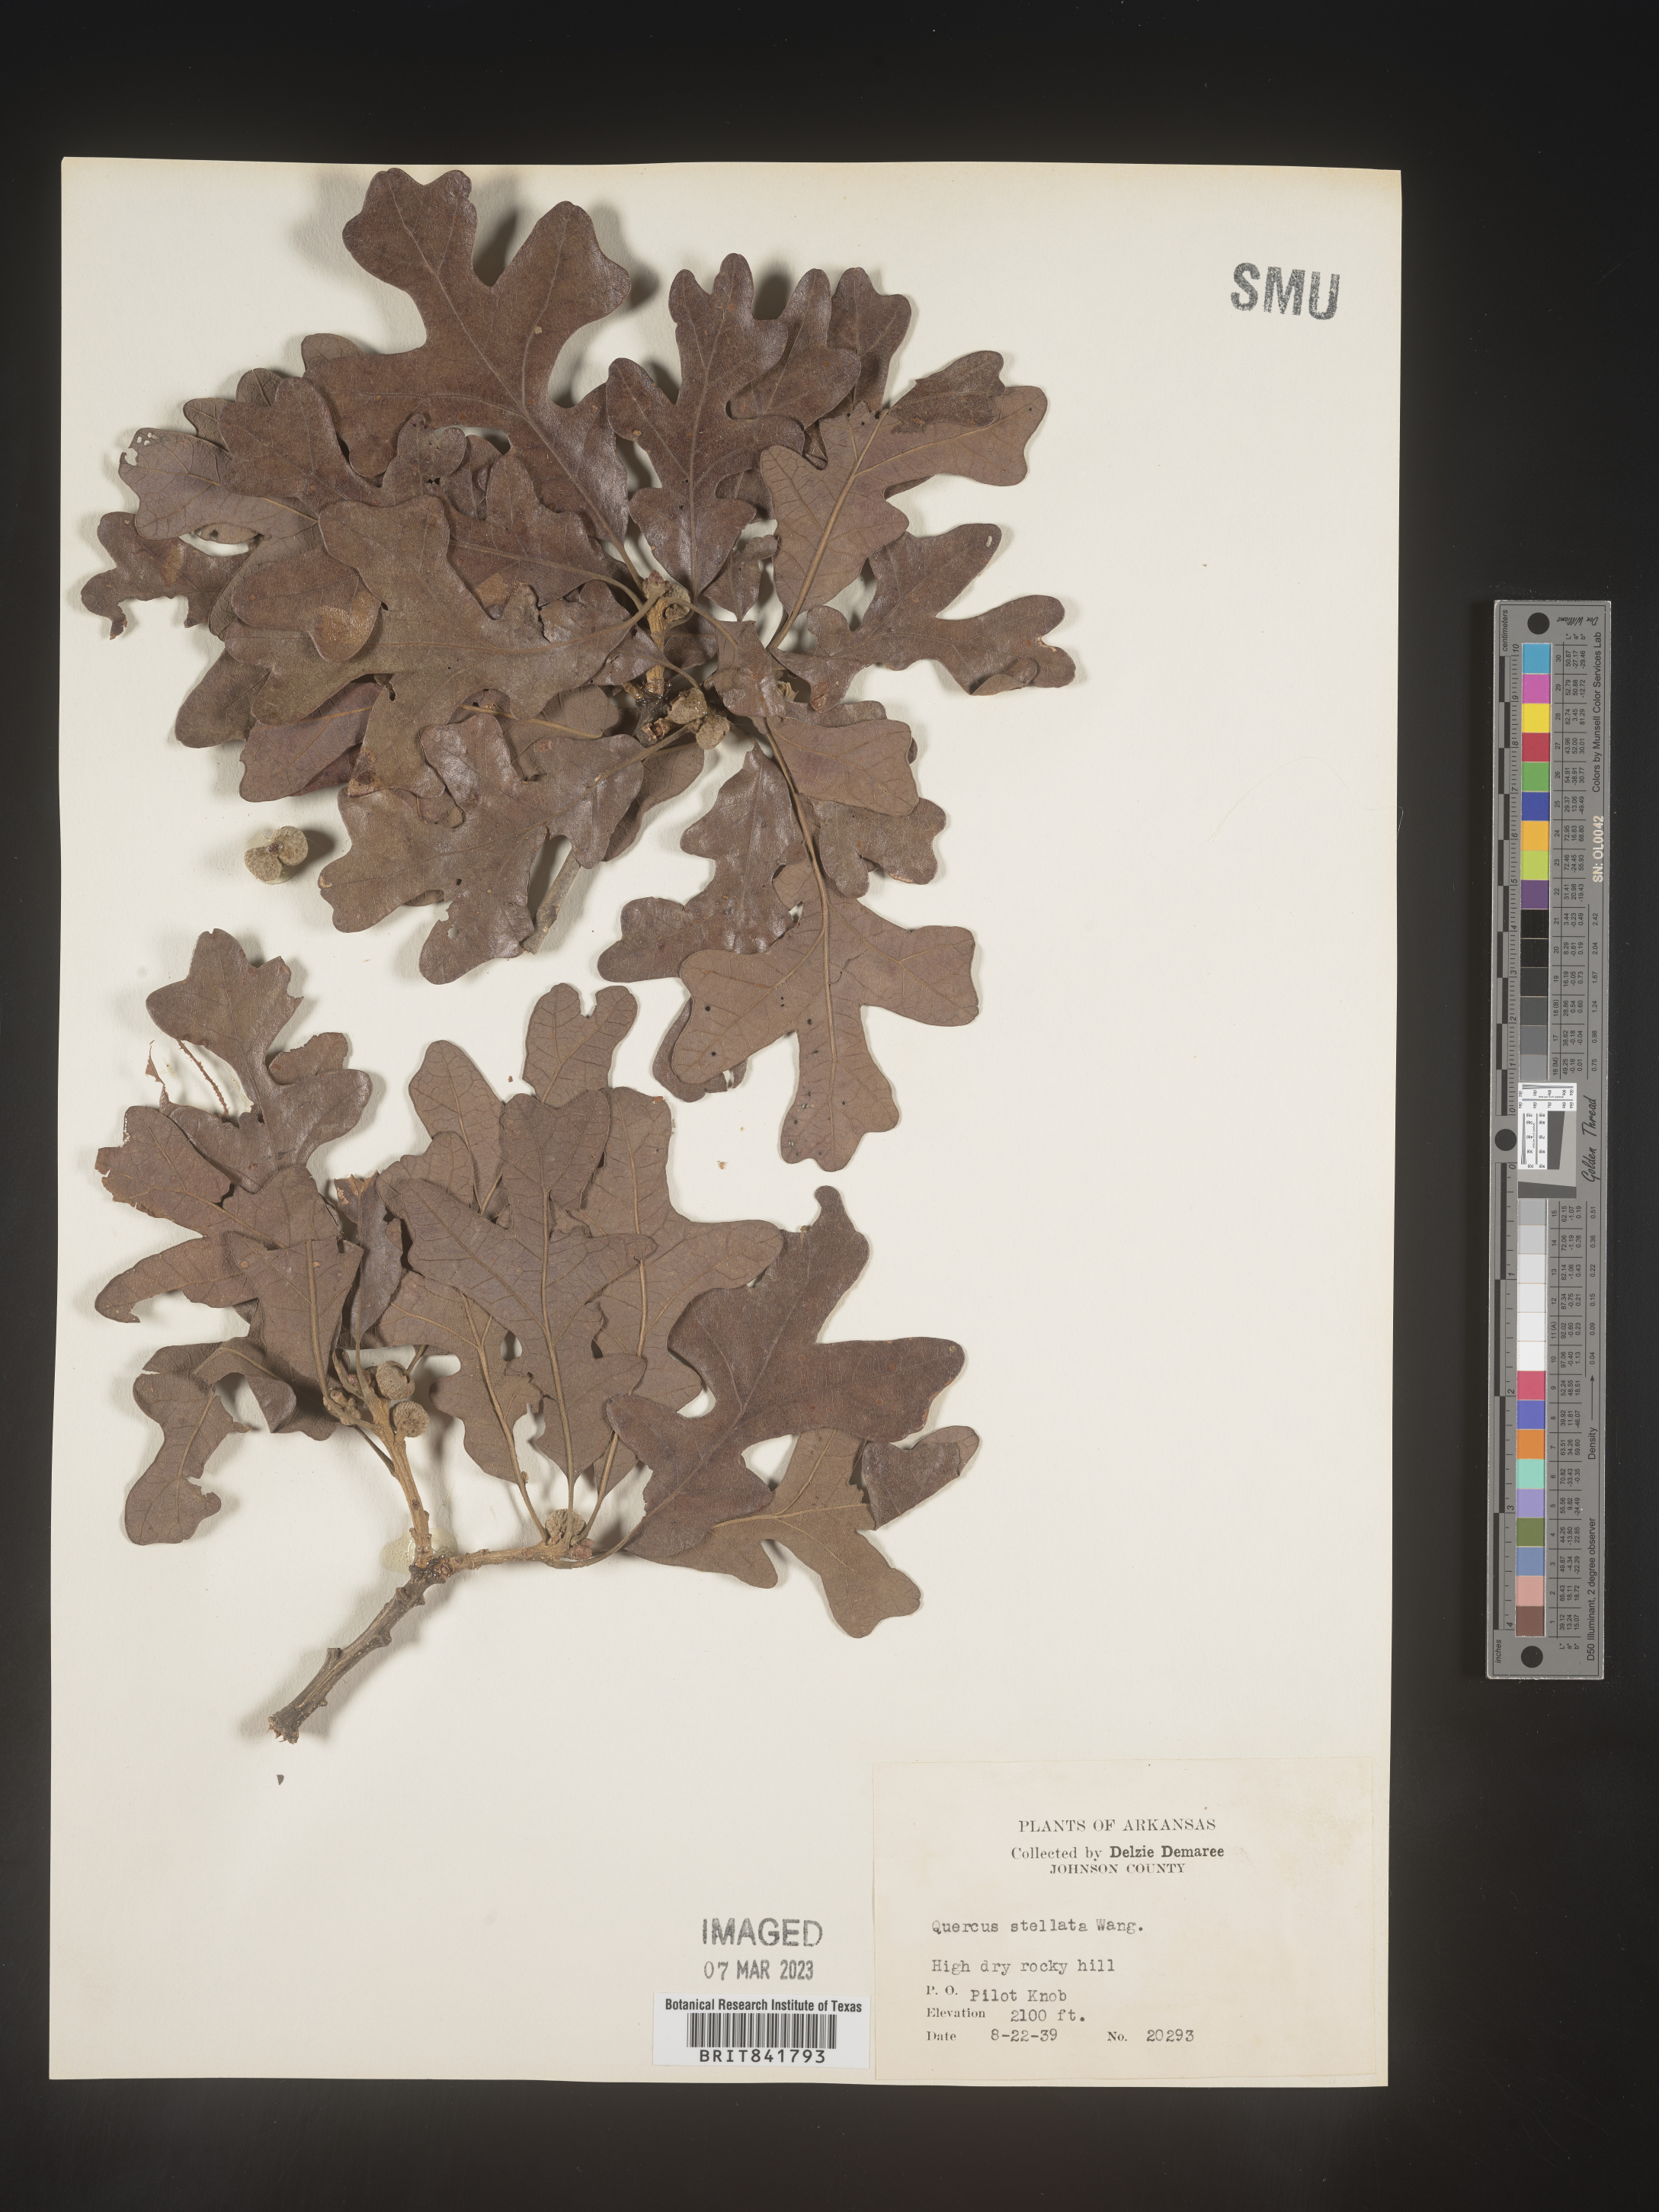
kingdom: Plantae
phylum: Tracheophyta
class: Magnoliopsida
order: Fagales
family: Fagaceae
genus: Quercus
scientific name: Quercus stellata
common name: Post oak
